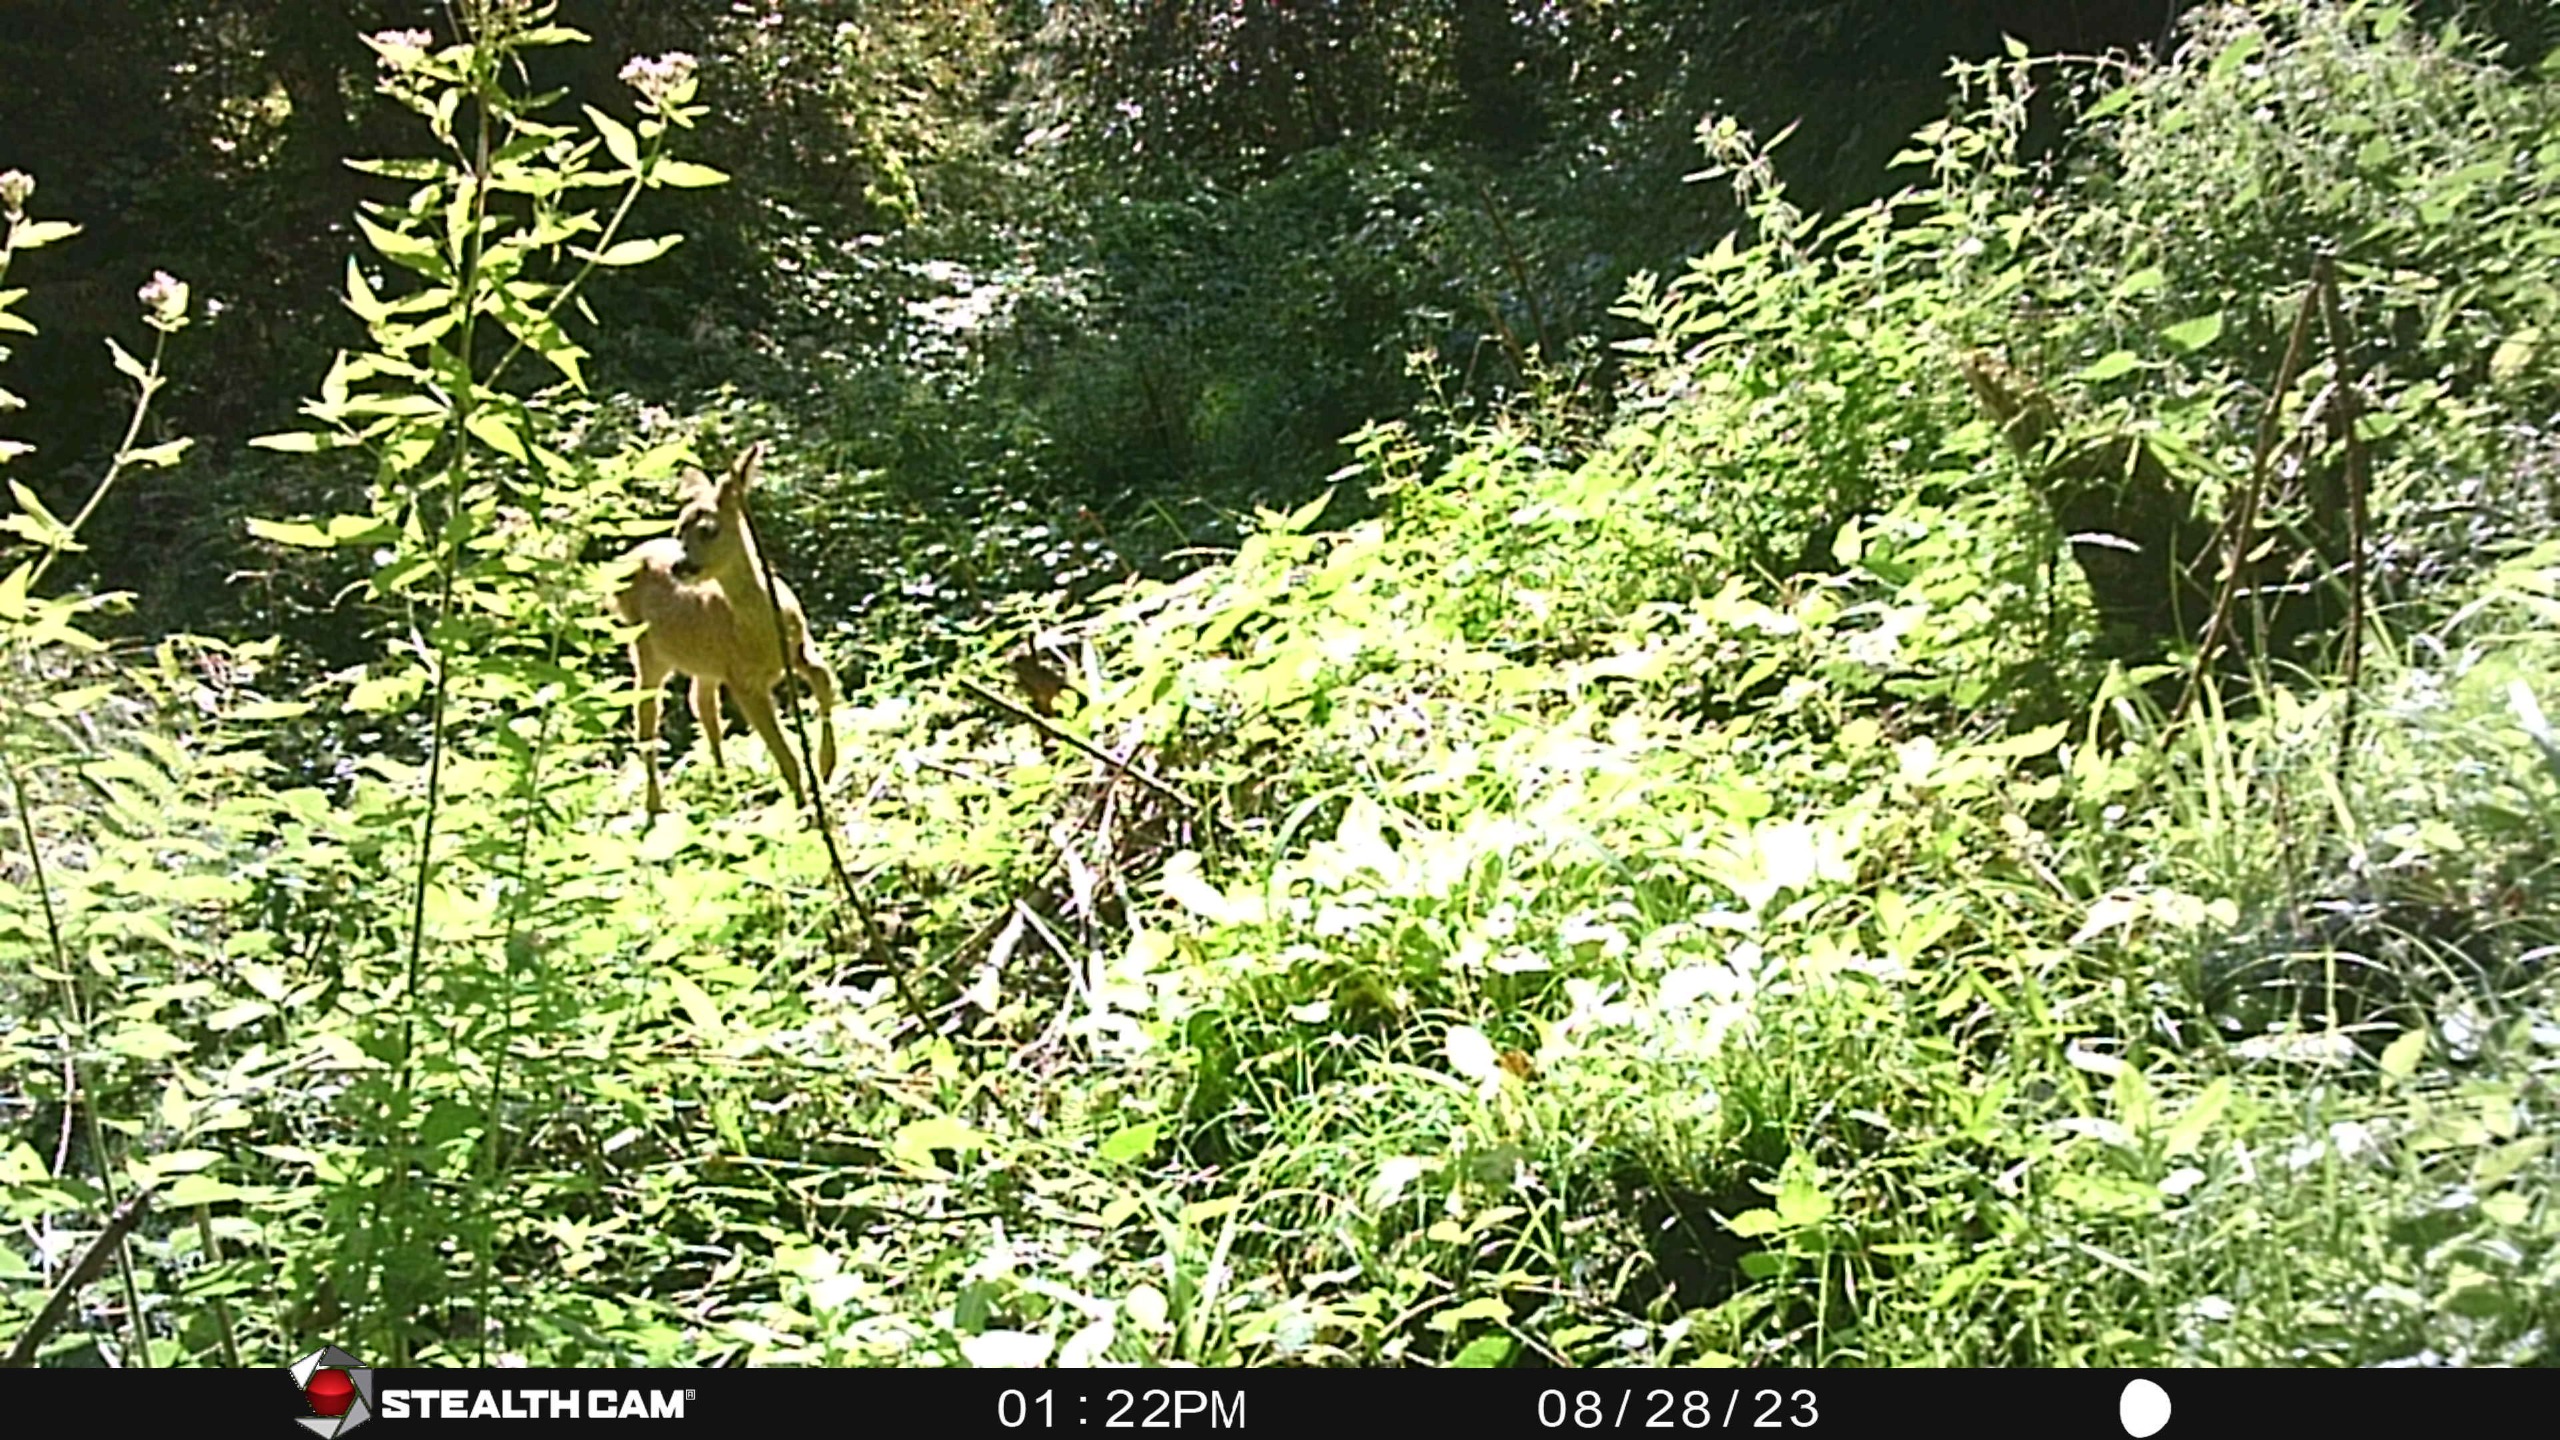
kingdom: Animalia
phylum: Chordata
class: Mammalia
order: Artiodactyla
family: Cervidae
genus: Capreolus
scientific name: Capreolus capreolus
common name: Rådyr
